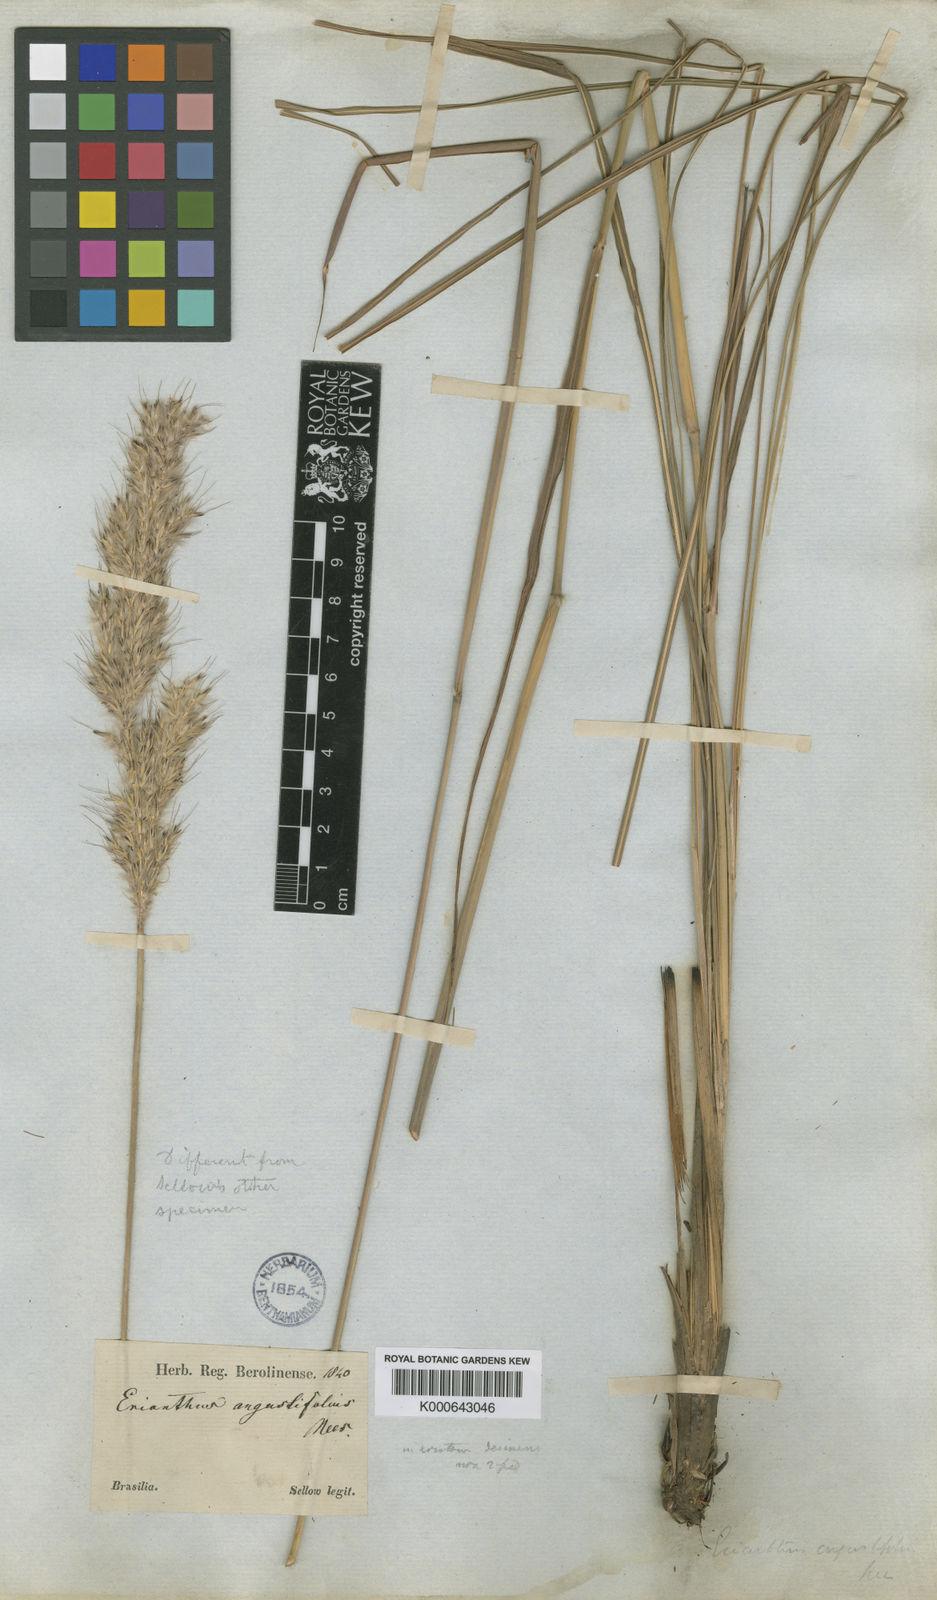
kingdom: Plantae
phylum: Tracheophyta
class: Liliopsida
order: Poales
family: Poaceae
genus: Saccharum
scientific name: Saccharum angustifolium
